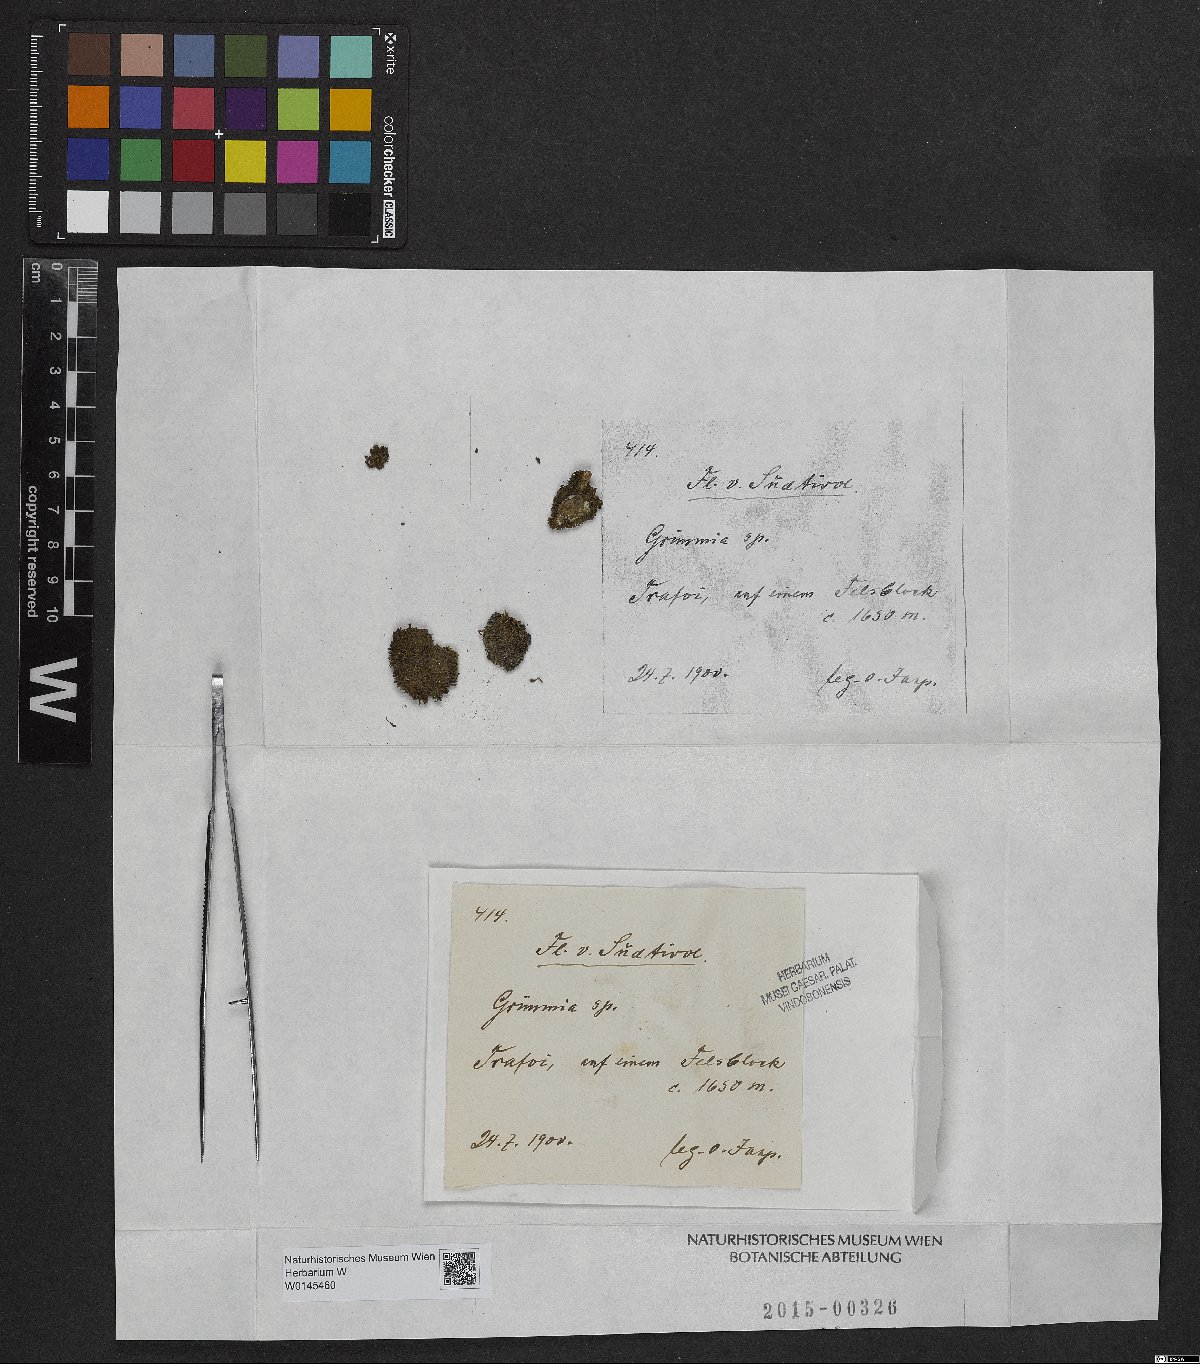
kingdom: Plantae
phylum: Bryophyta
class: Bryopsida
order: Grimmiales
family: Grimmiaceae
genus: Grimmia
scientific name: Grimmia
